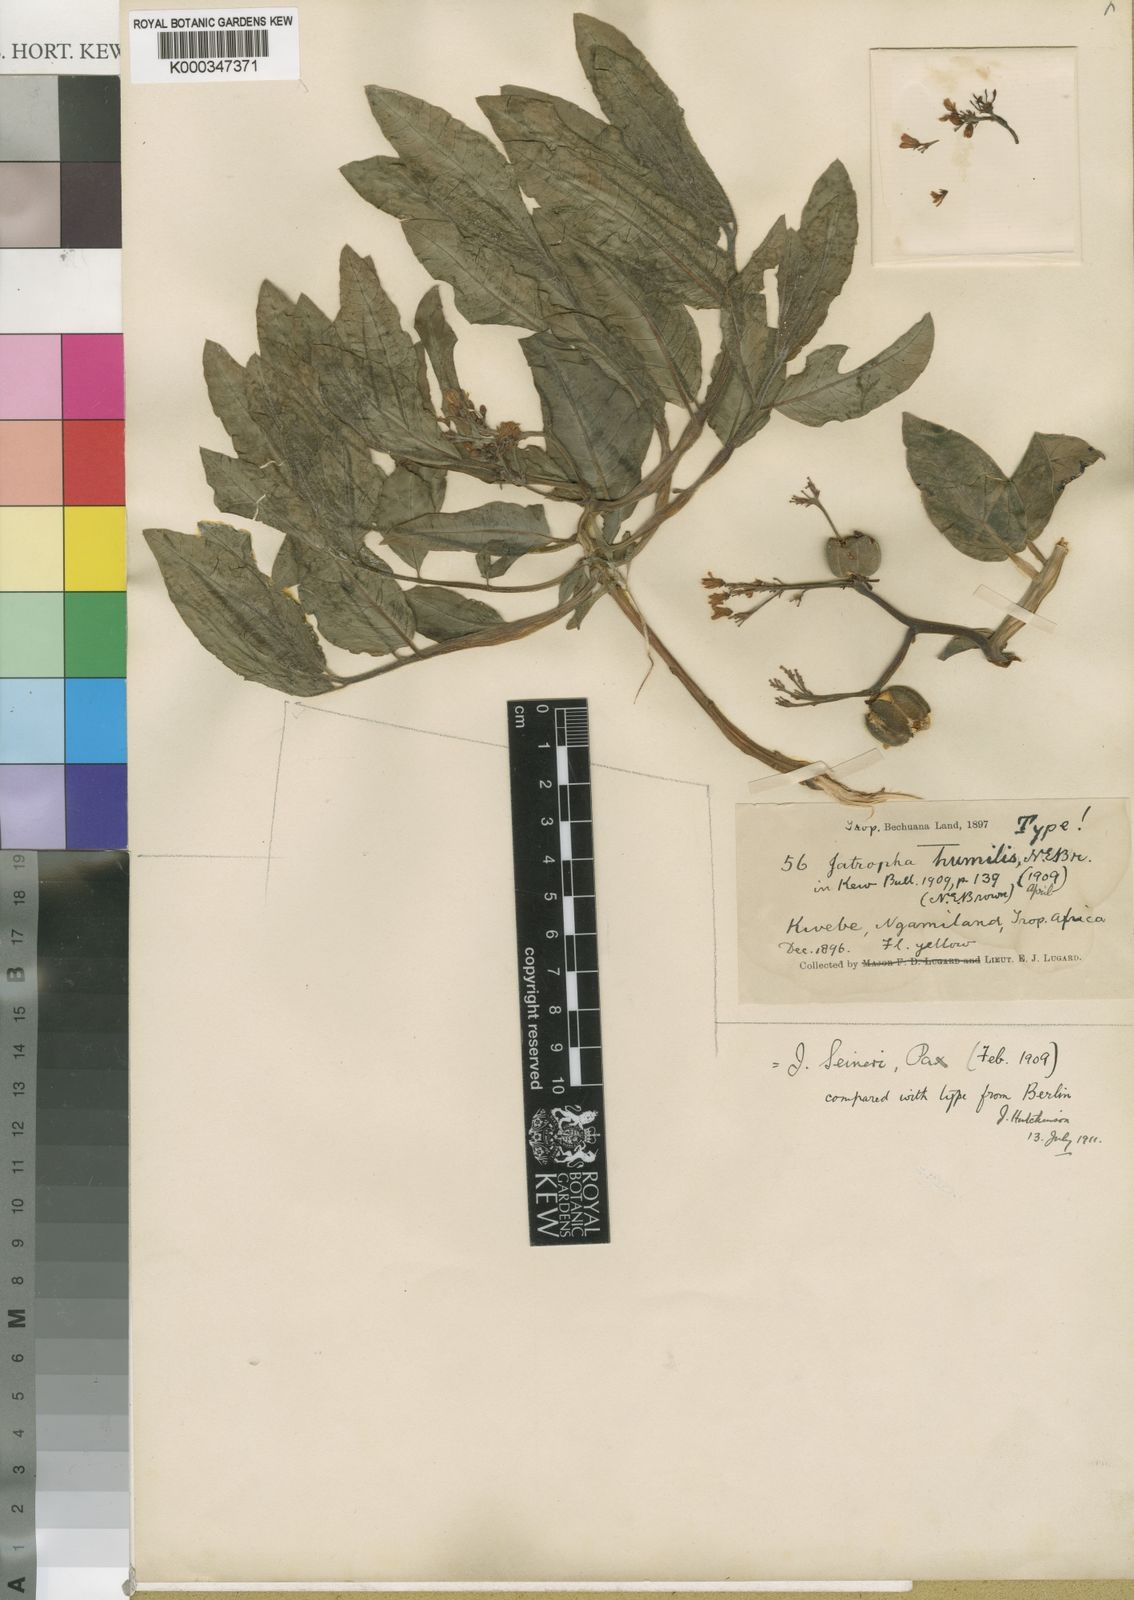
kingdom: Plantae
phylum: Tracheophyta
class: Magnoliopsida
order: Malpighiales
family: Euphorbiaceae
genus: Jatropha
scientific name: Jatropha seineri
